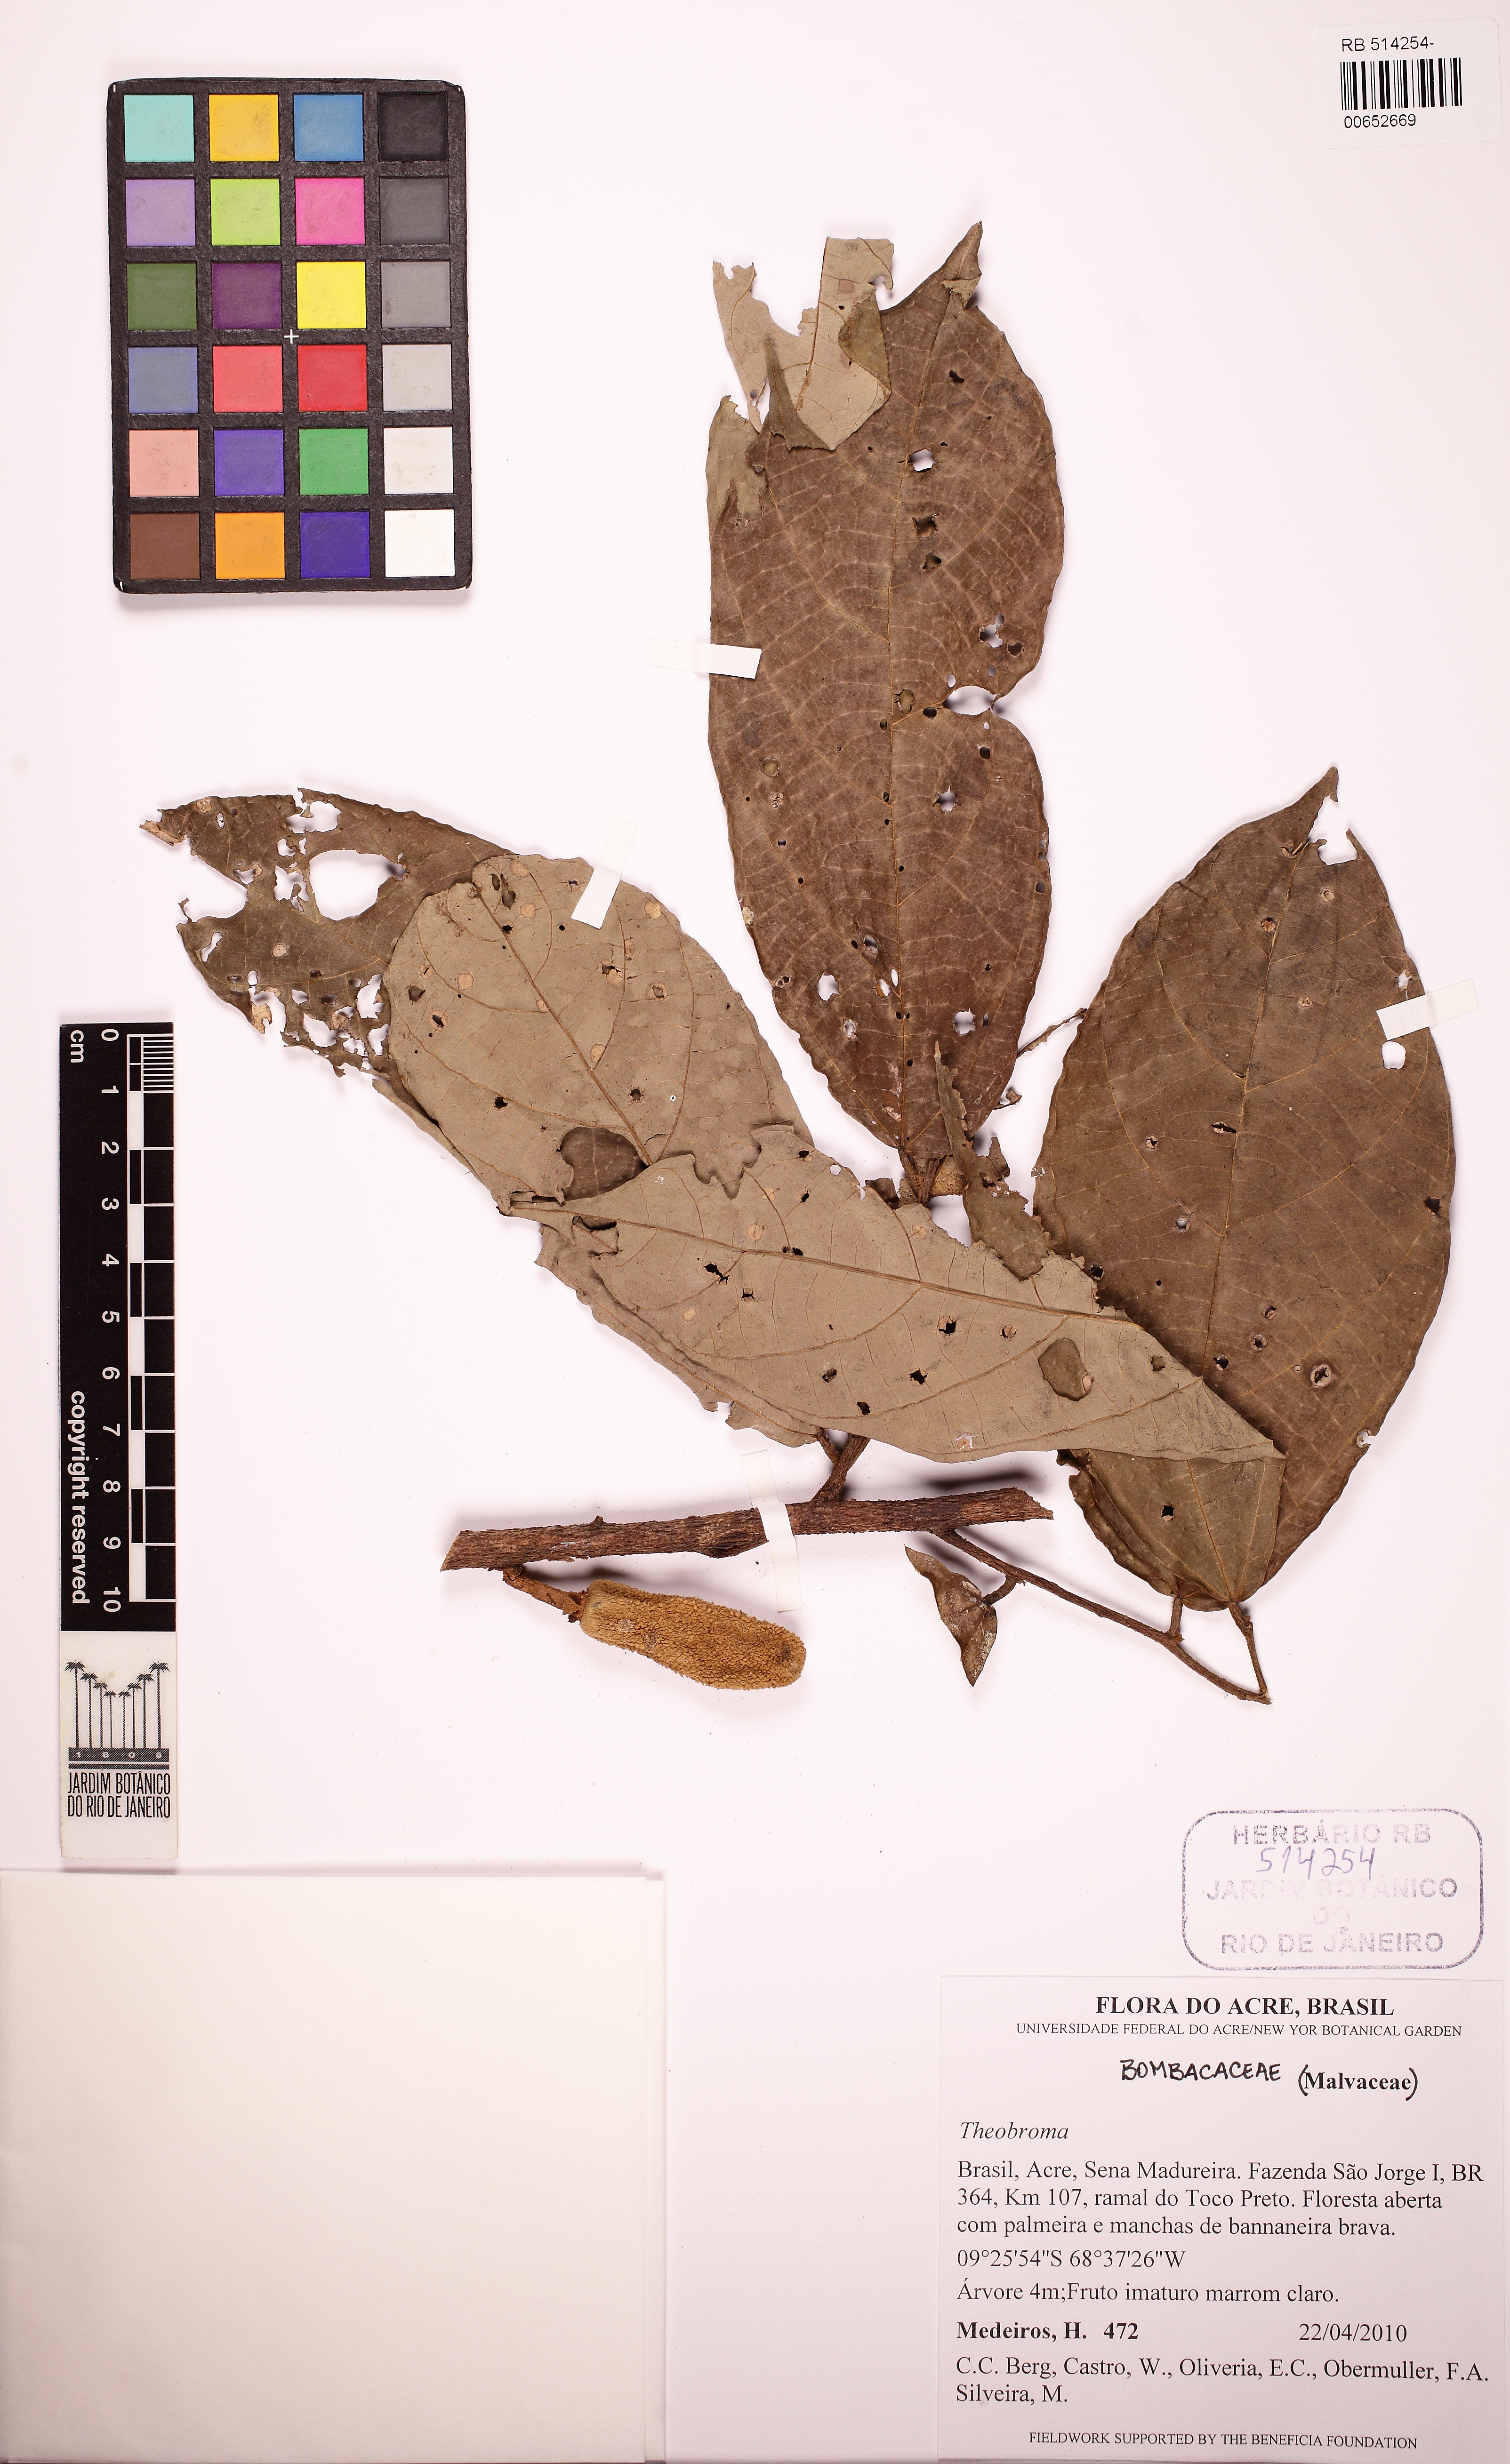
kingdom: Plantae
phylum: Tracheophyta
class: Magnoliopsida
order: Malvales
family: Malvaceae
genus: Theobroma
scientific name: Theobroma obovatum
